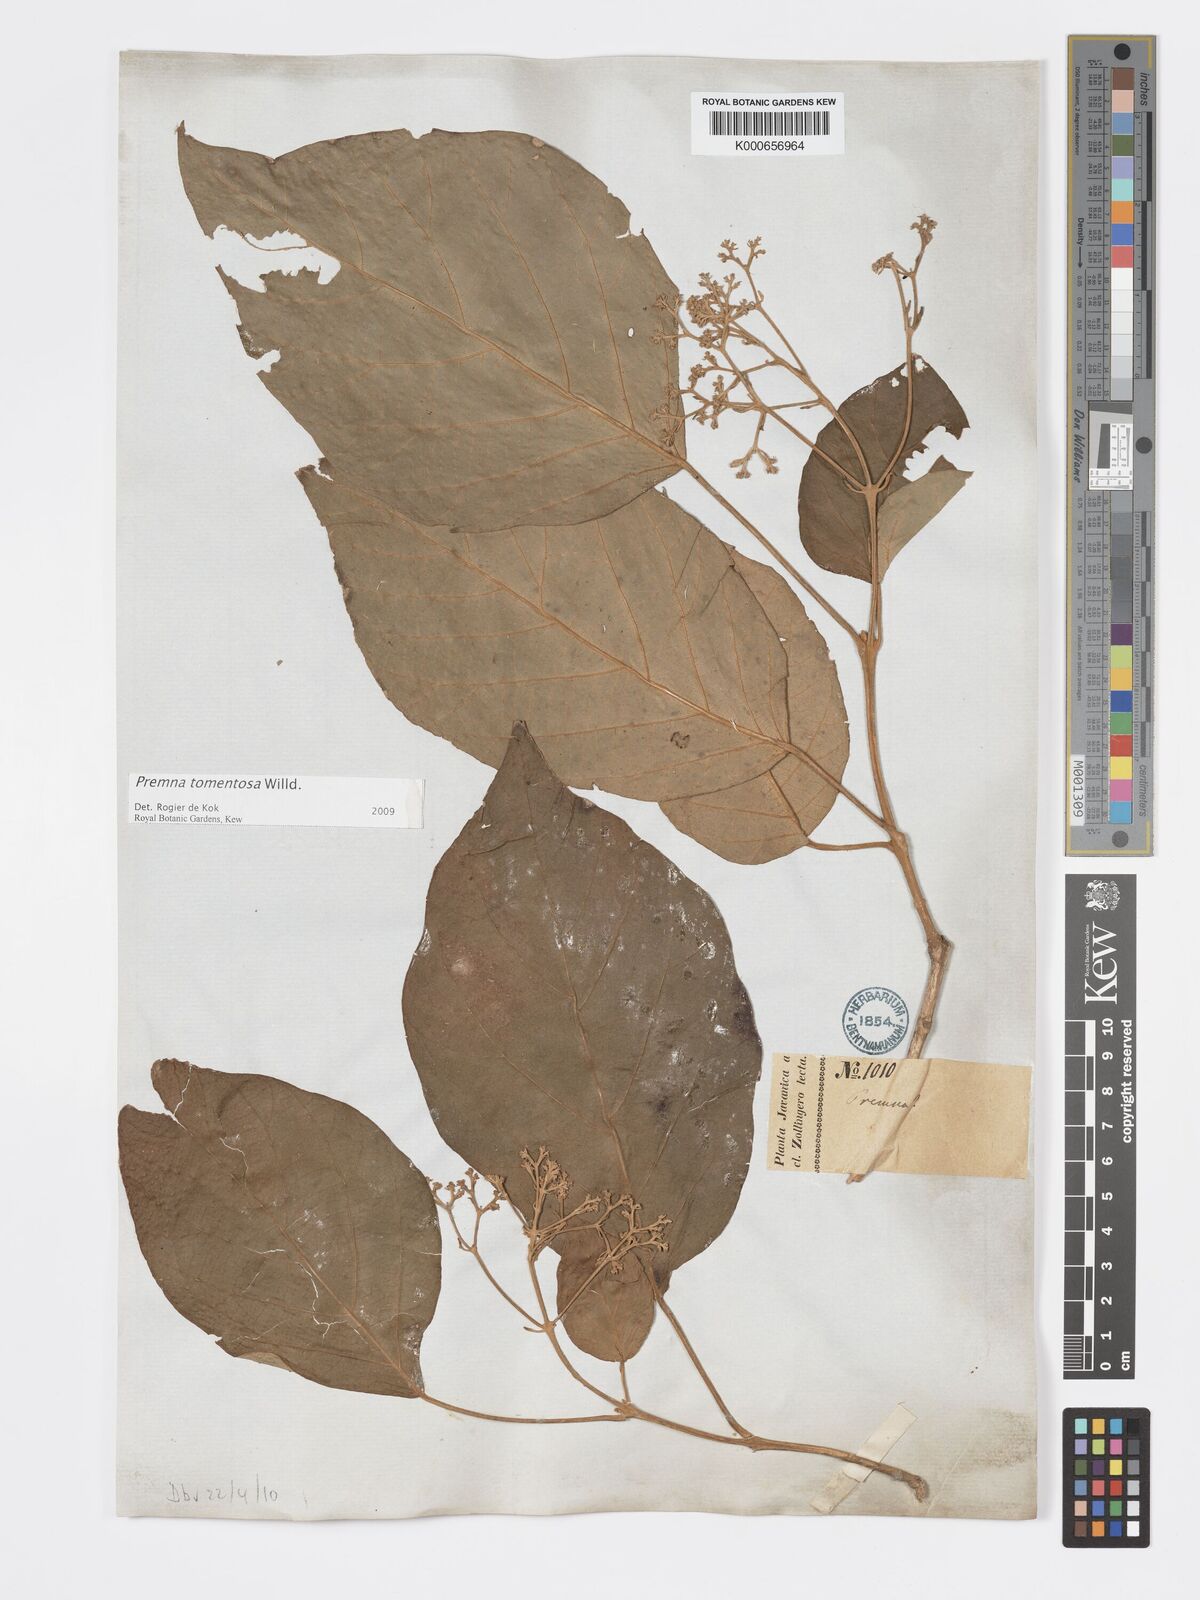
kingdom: Plantae
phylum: Tracheophyta
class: Magnoliopsida
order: Lamiales
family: Lamiaceae
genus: Premna
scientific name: Premna tomentosa
